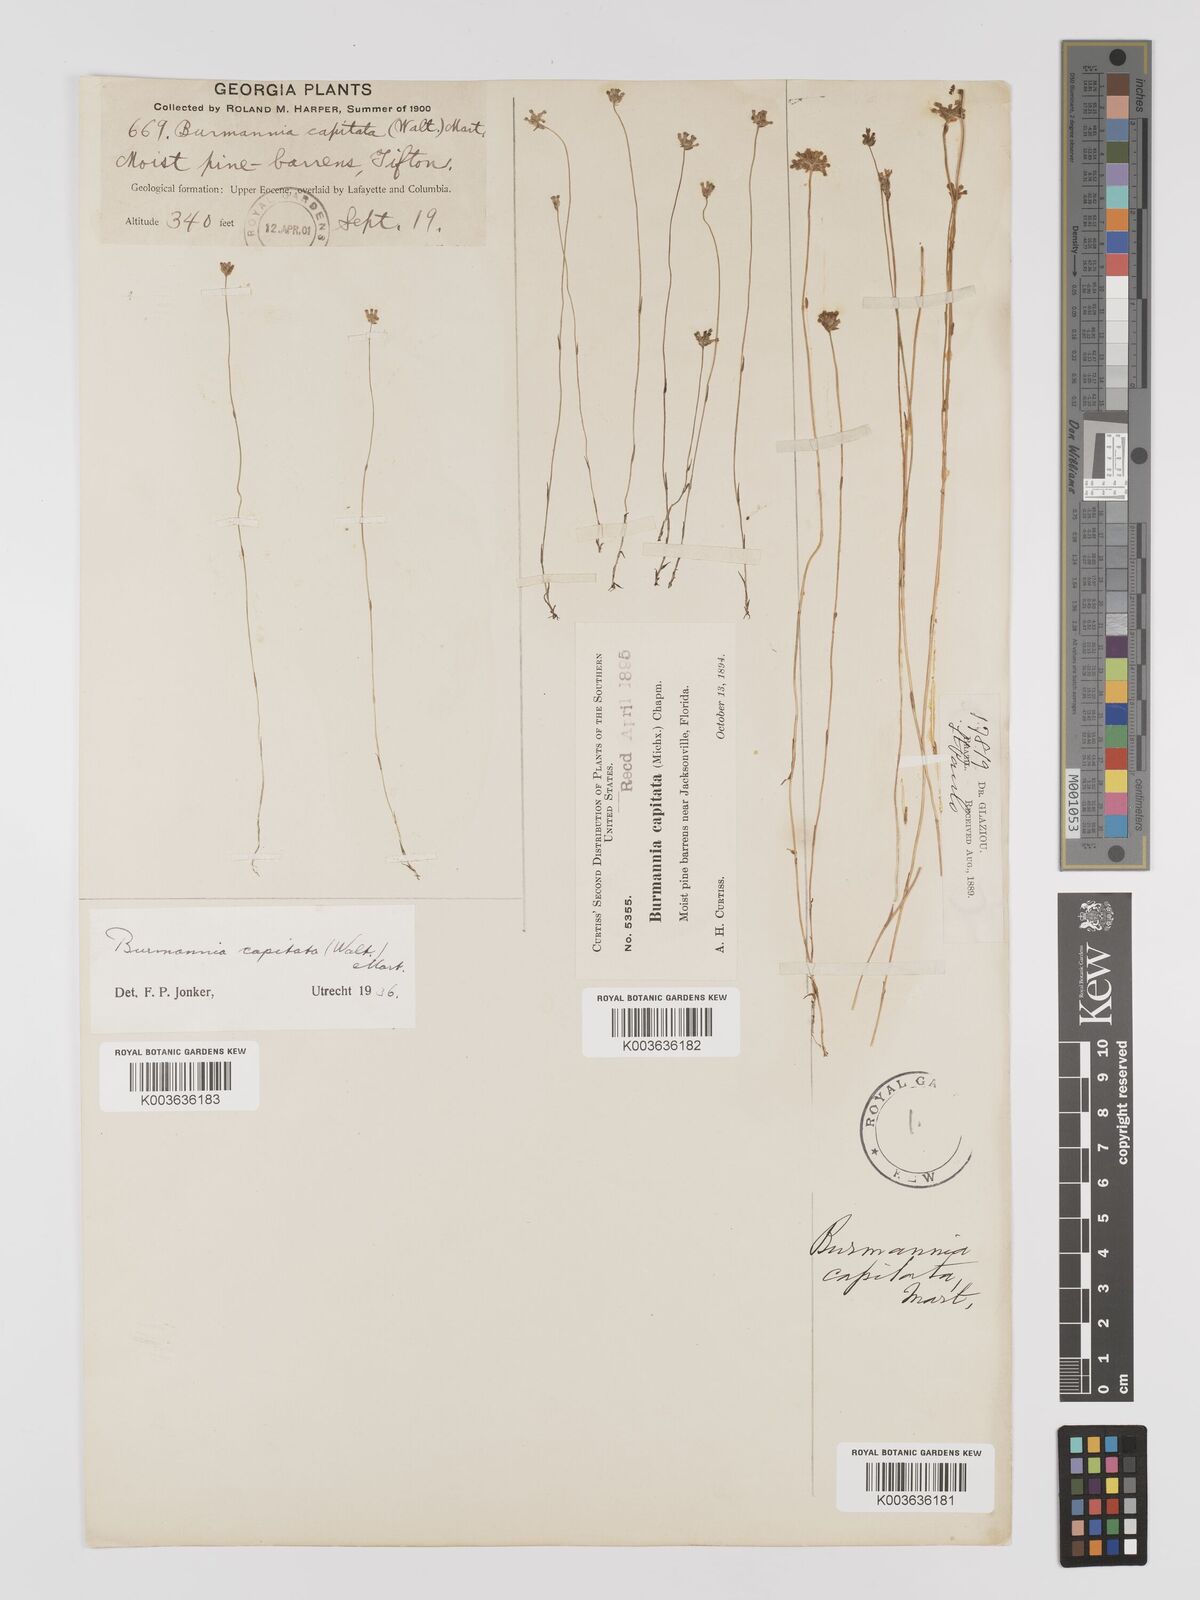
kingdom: Plantae
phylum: Tracheophyta
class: Liliopsida
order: Dioscoreales
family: Burmanniaceae
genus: Burmannia
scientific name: Burmannia capitata
